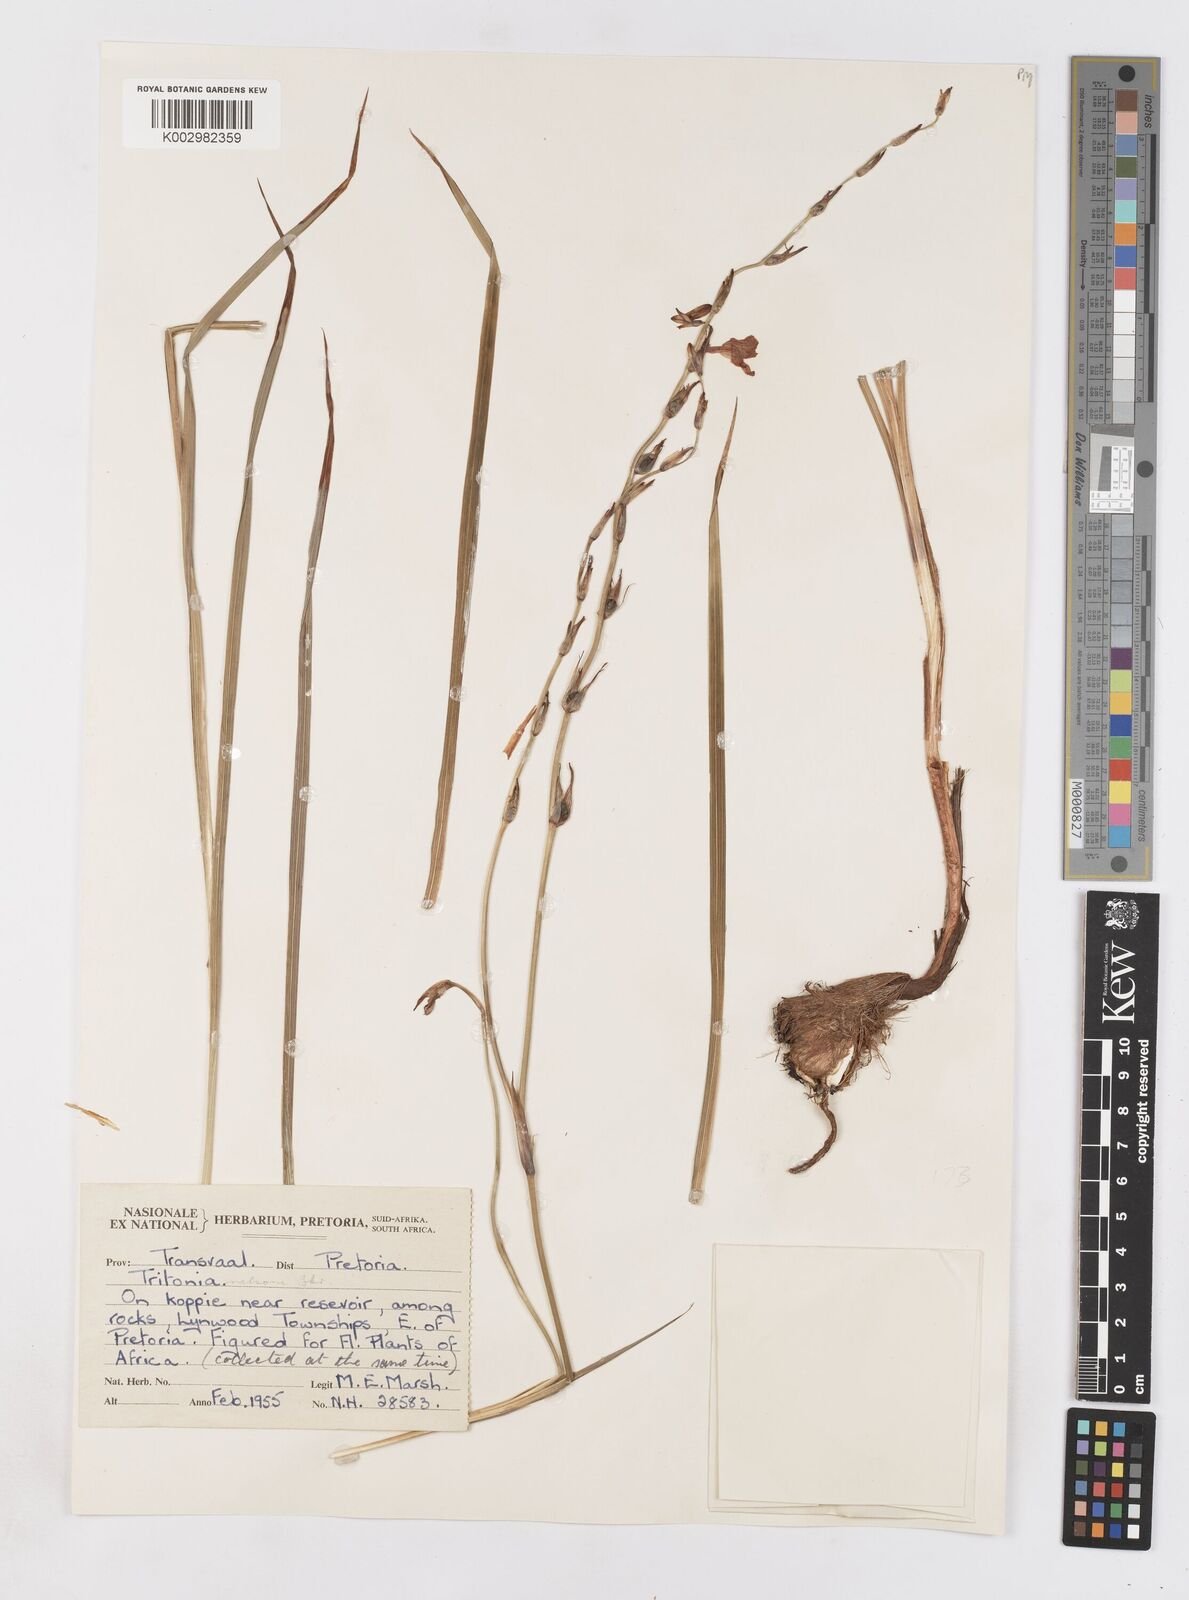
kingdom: Plantae
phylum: Tracheophyta
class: Liliopsida
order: Asparagales
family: Iridaceae
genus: Tritonia
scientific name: Tritonia nelsonii
